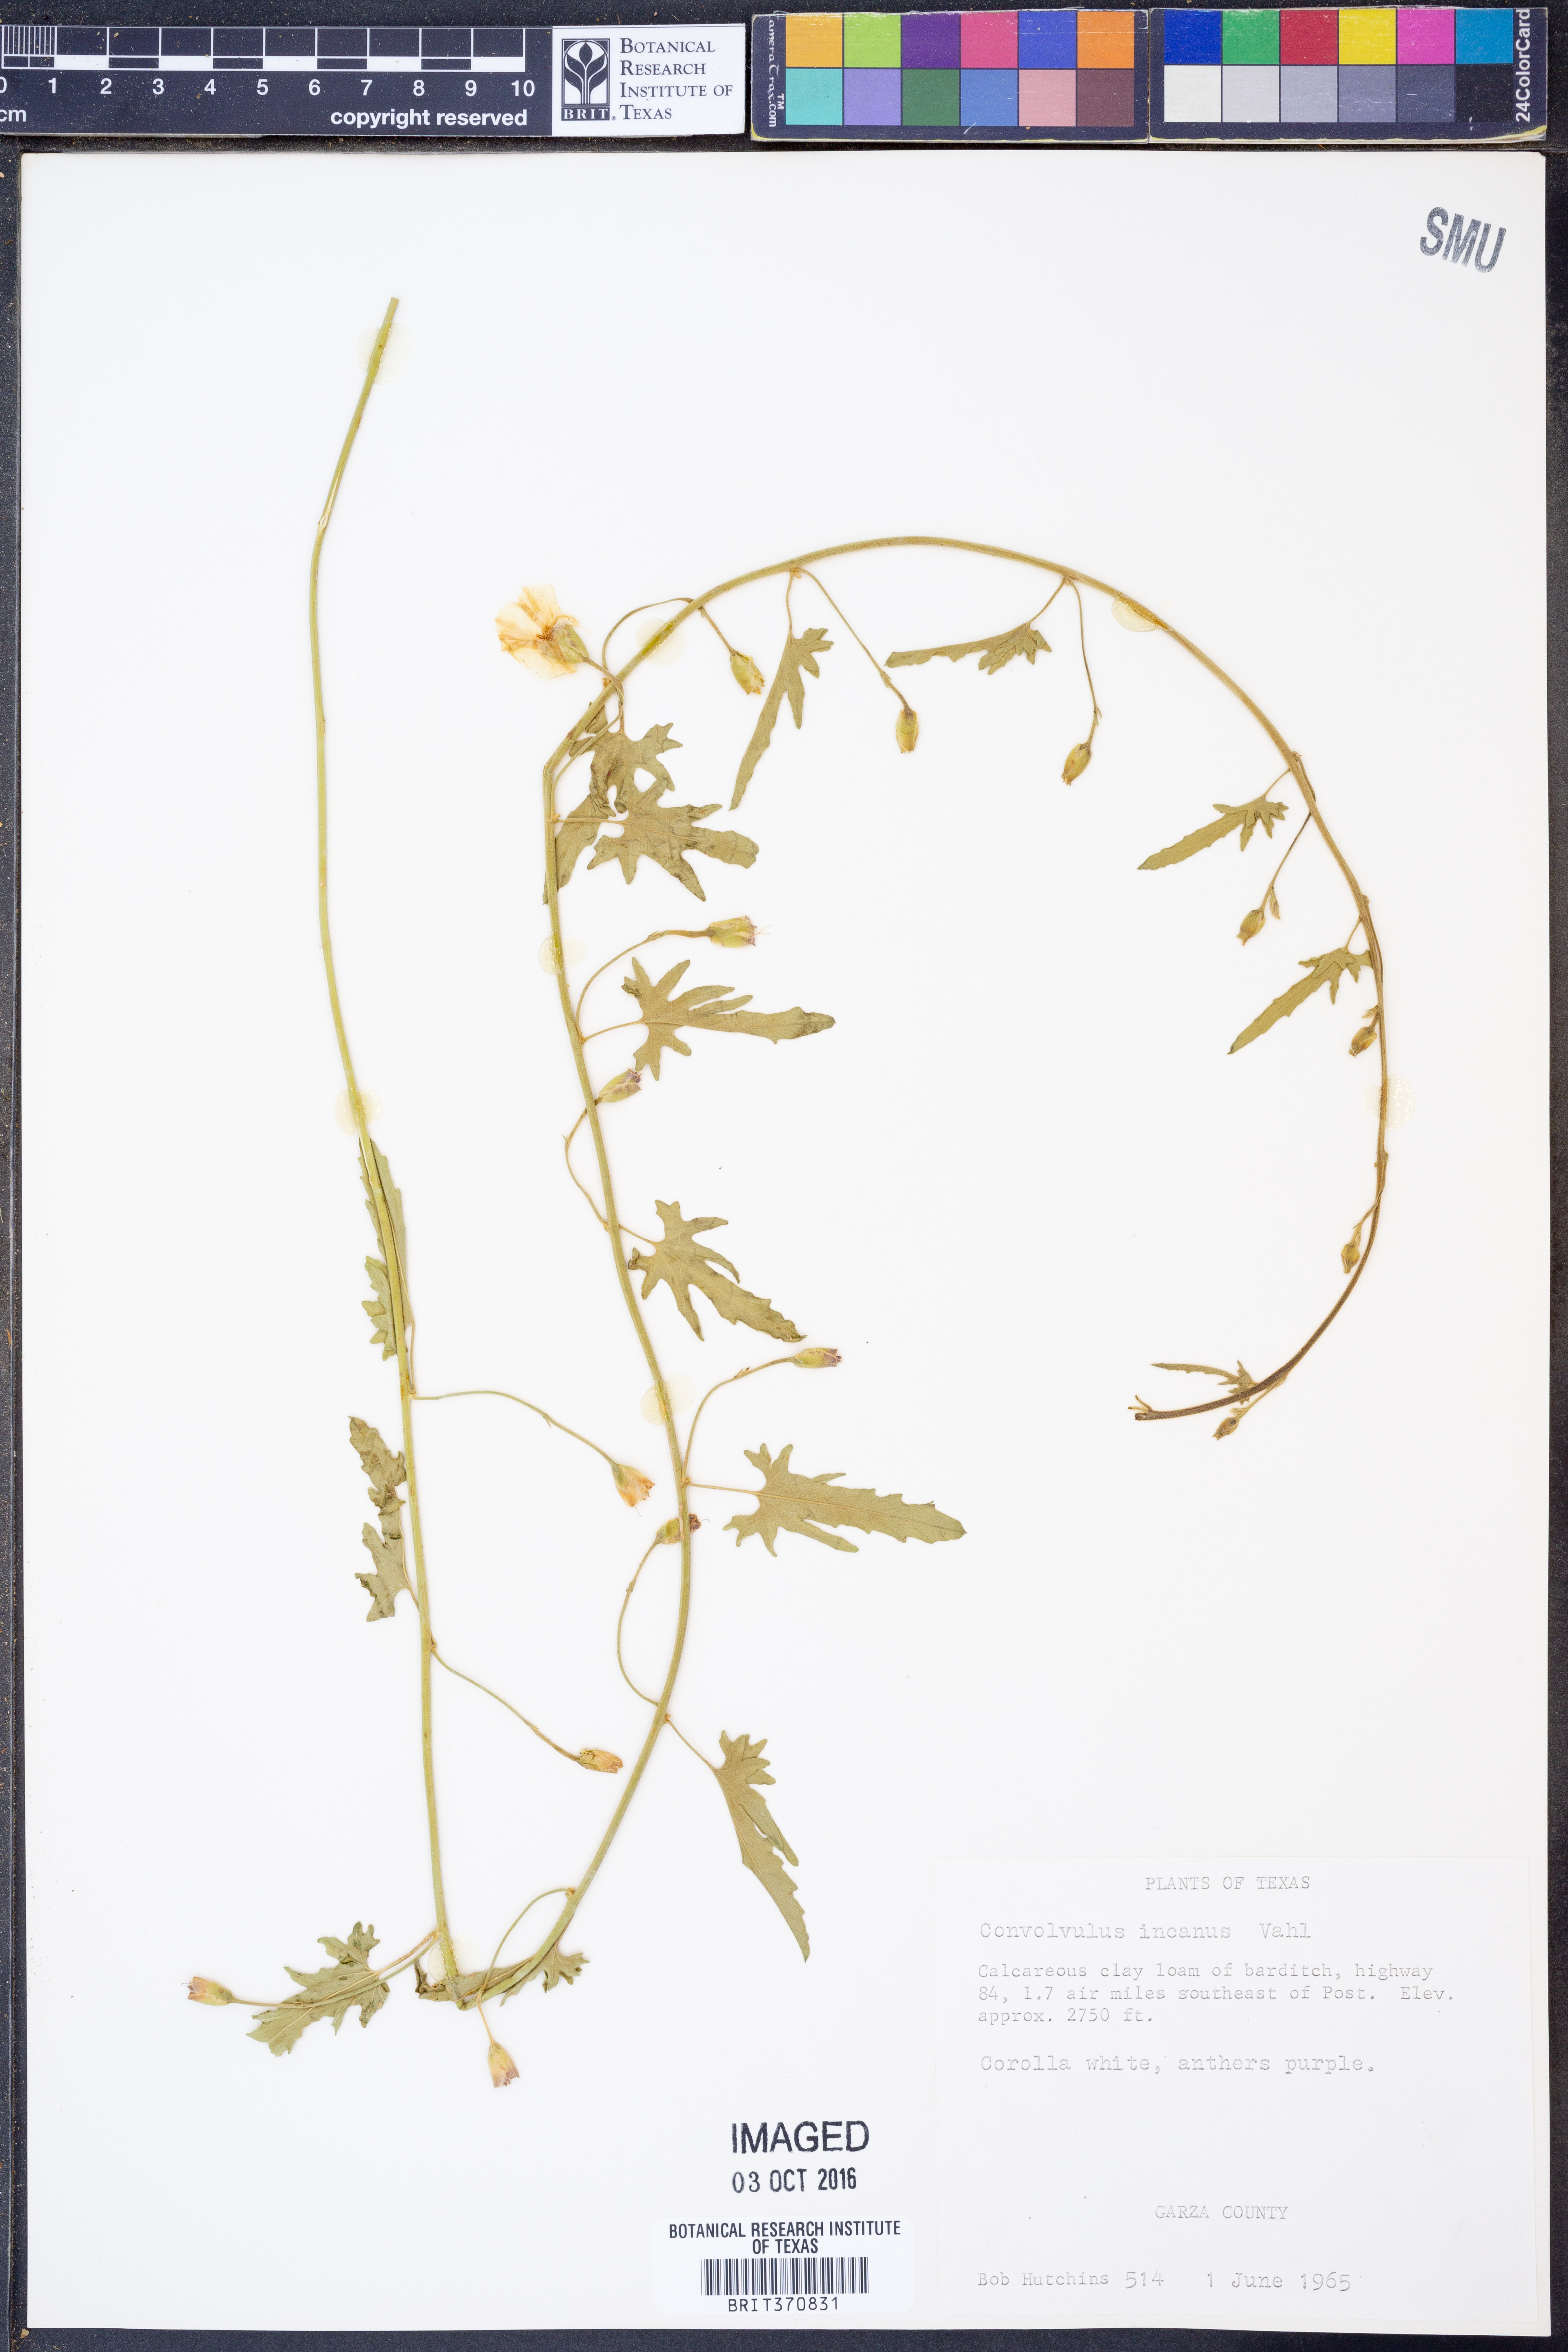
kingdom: Plantae
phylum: Tracheophyta
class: Magnoliopsida
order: Solanales
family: Convolvulaceae
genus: Convolvulus
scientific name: Convolvulus hermanniae
